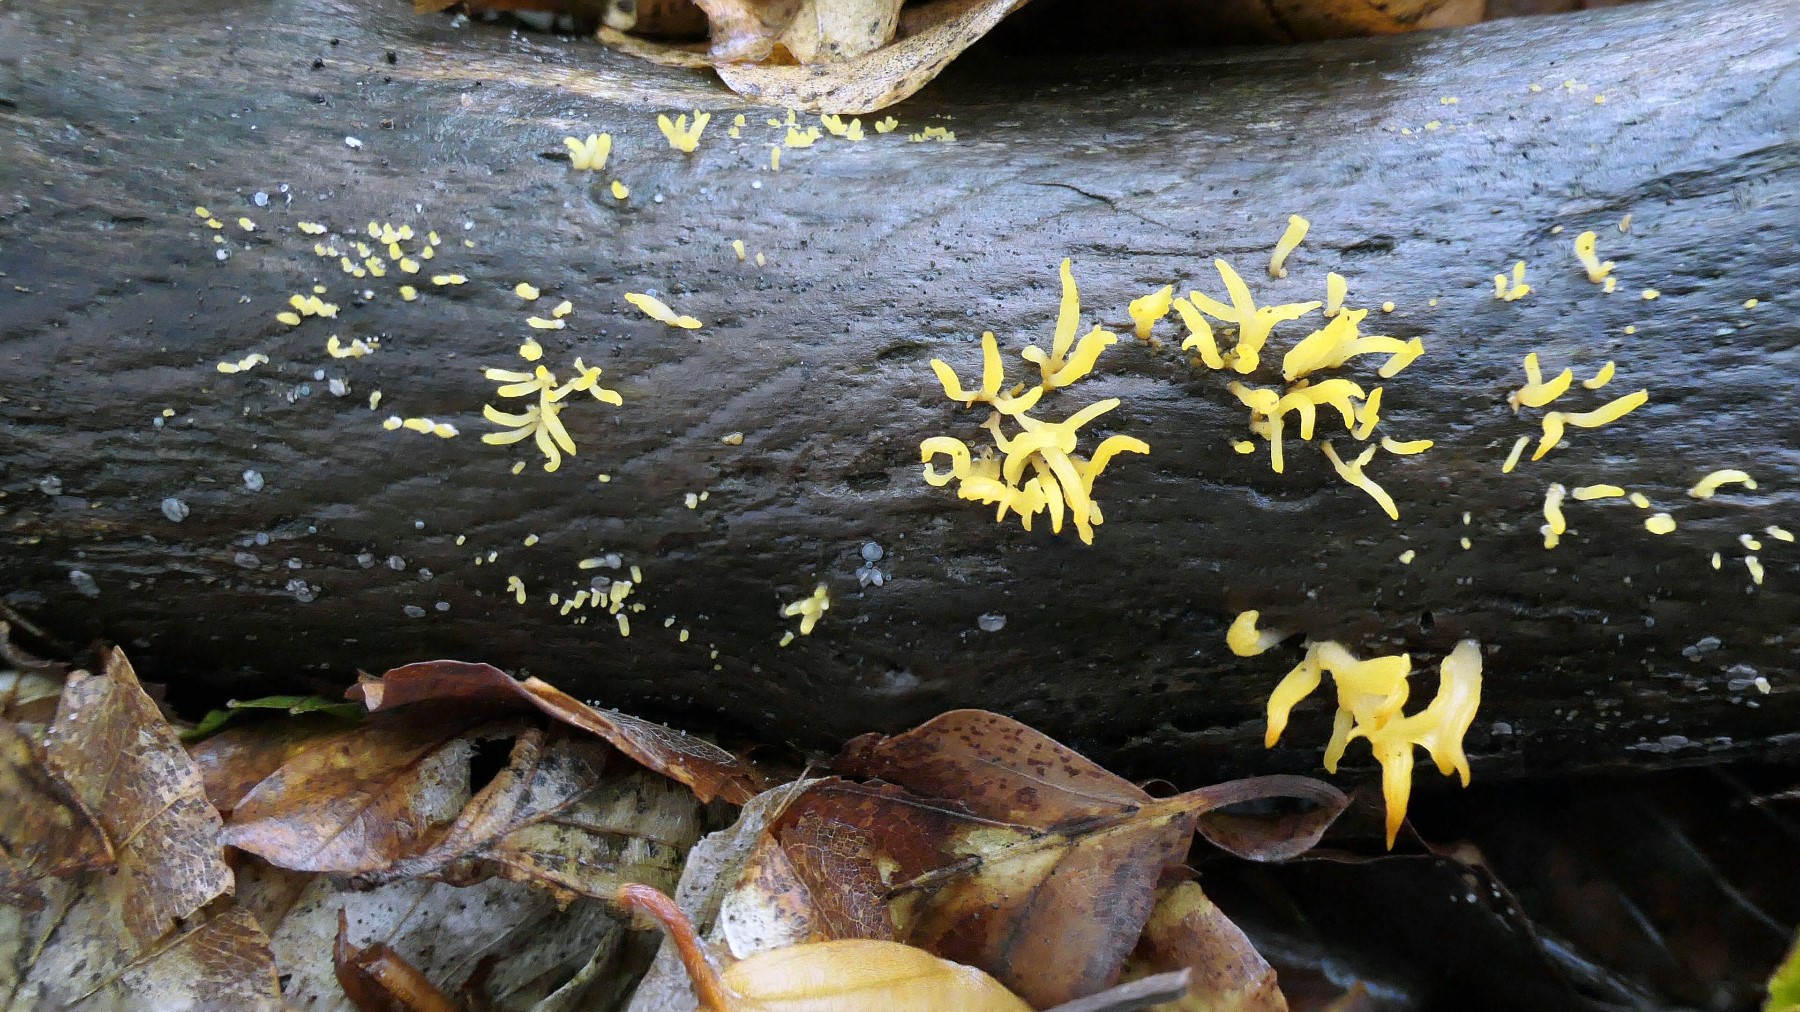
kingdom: Fungi
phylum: Basidiomycota
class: Dacrymycetes
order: Dacrymycetales
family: Dacrymycetaceae
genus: Calocera
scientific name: Calocera cornea
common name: liden guldgaffel
